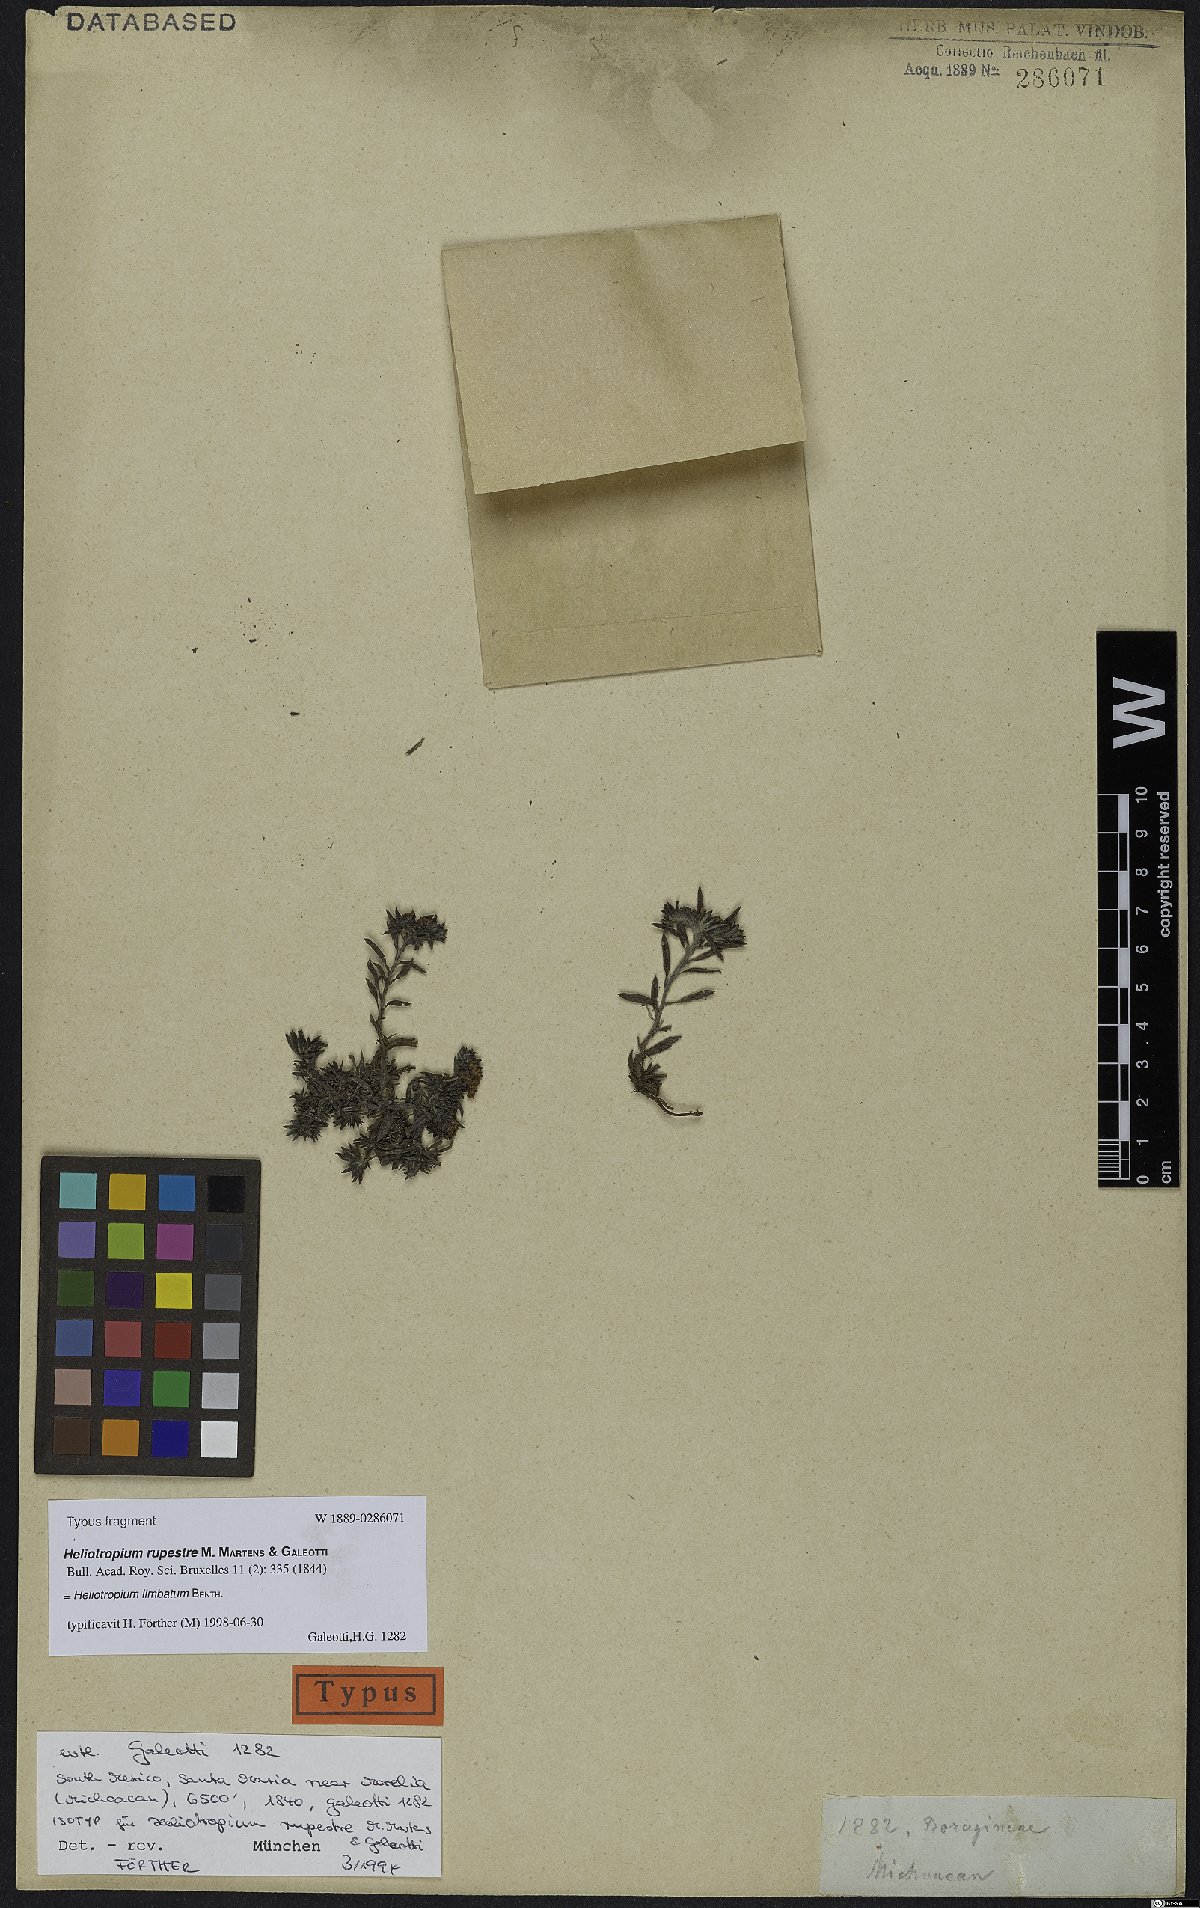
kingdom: Plantae
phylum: Tracheophyta
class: Magnoliopsida
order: Boraginales
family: Heliotropiaceae
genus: Euploca
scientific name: Euploca limbata
